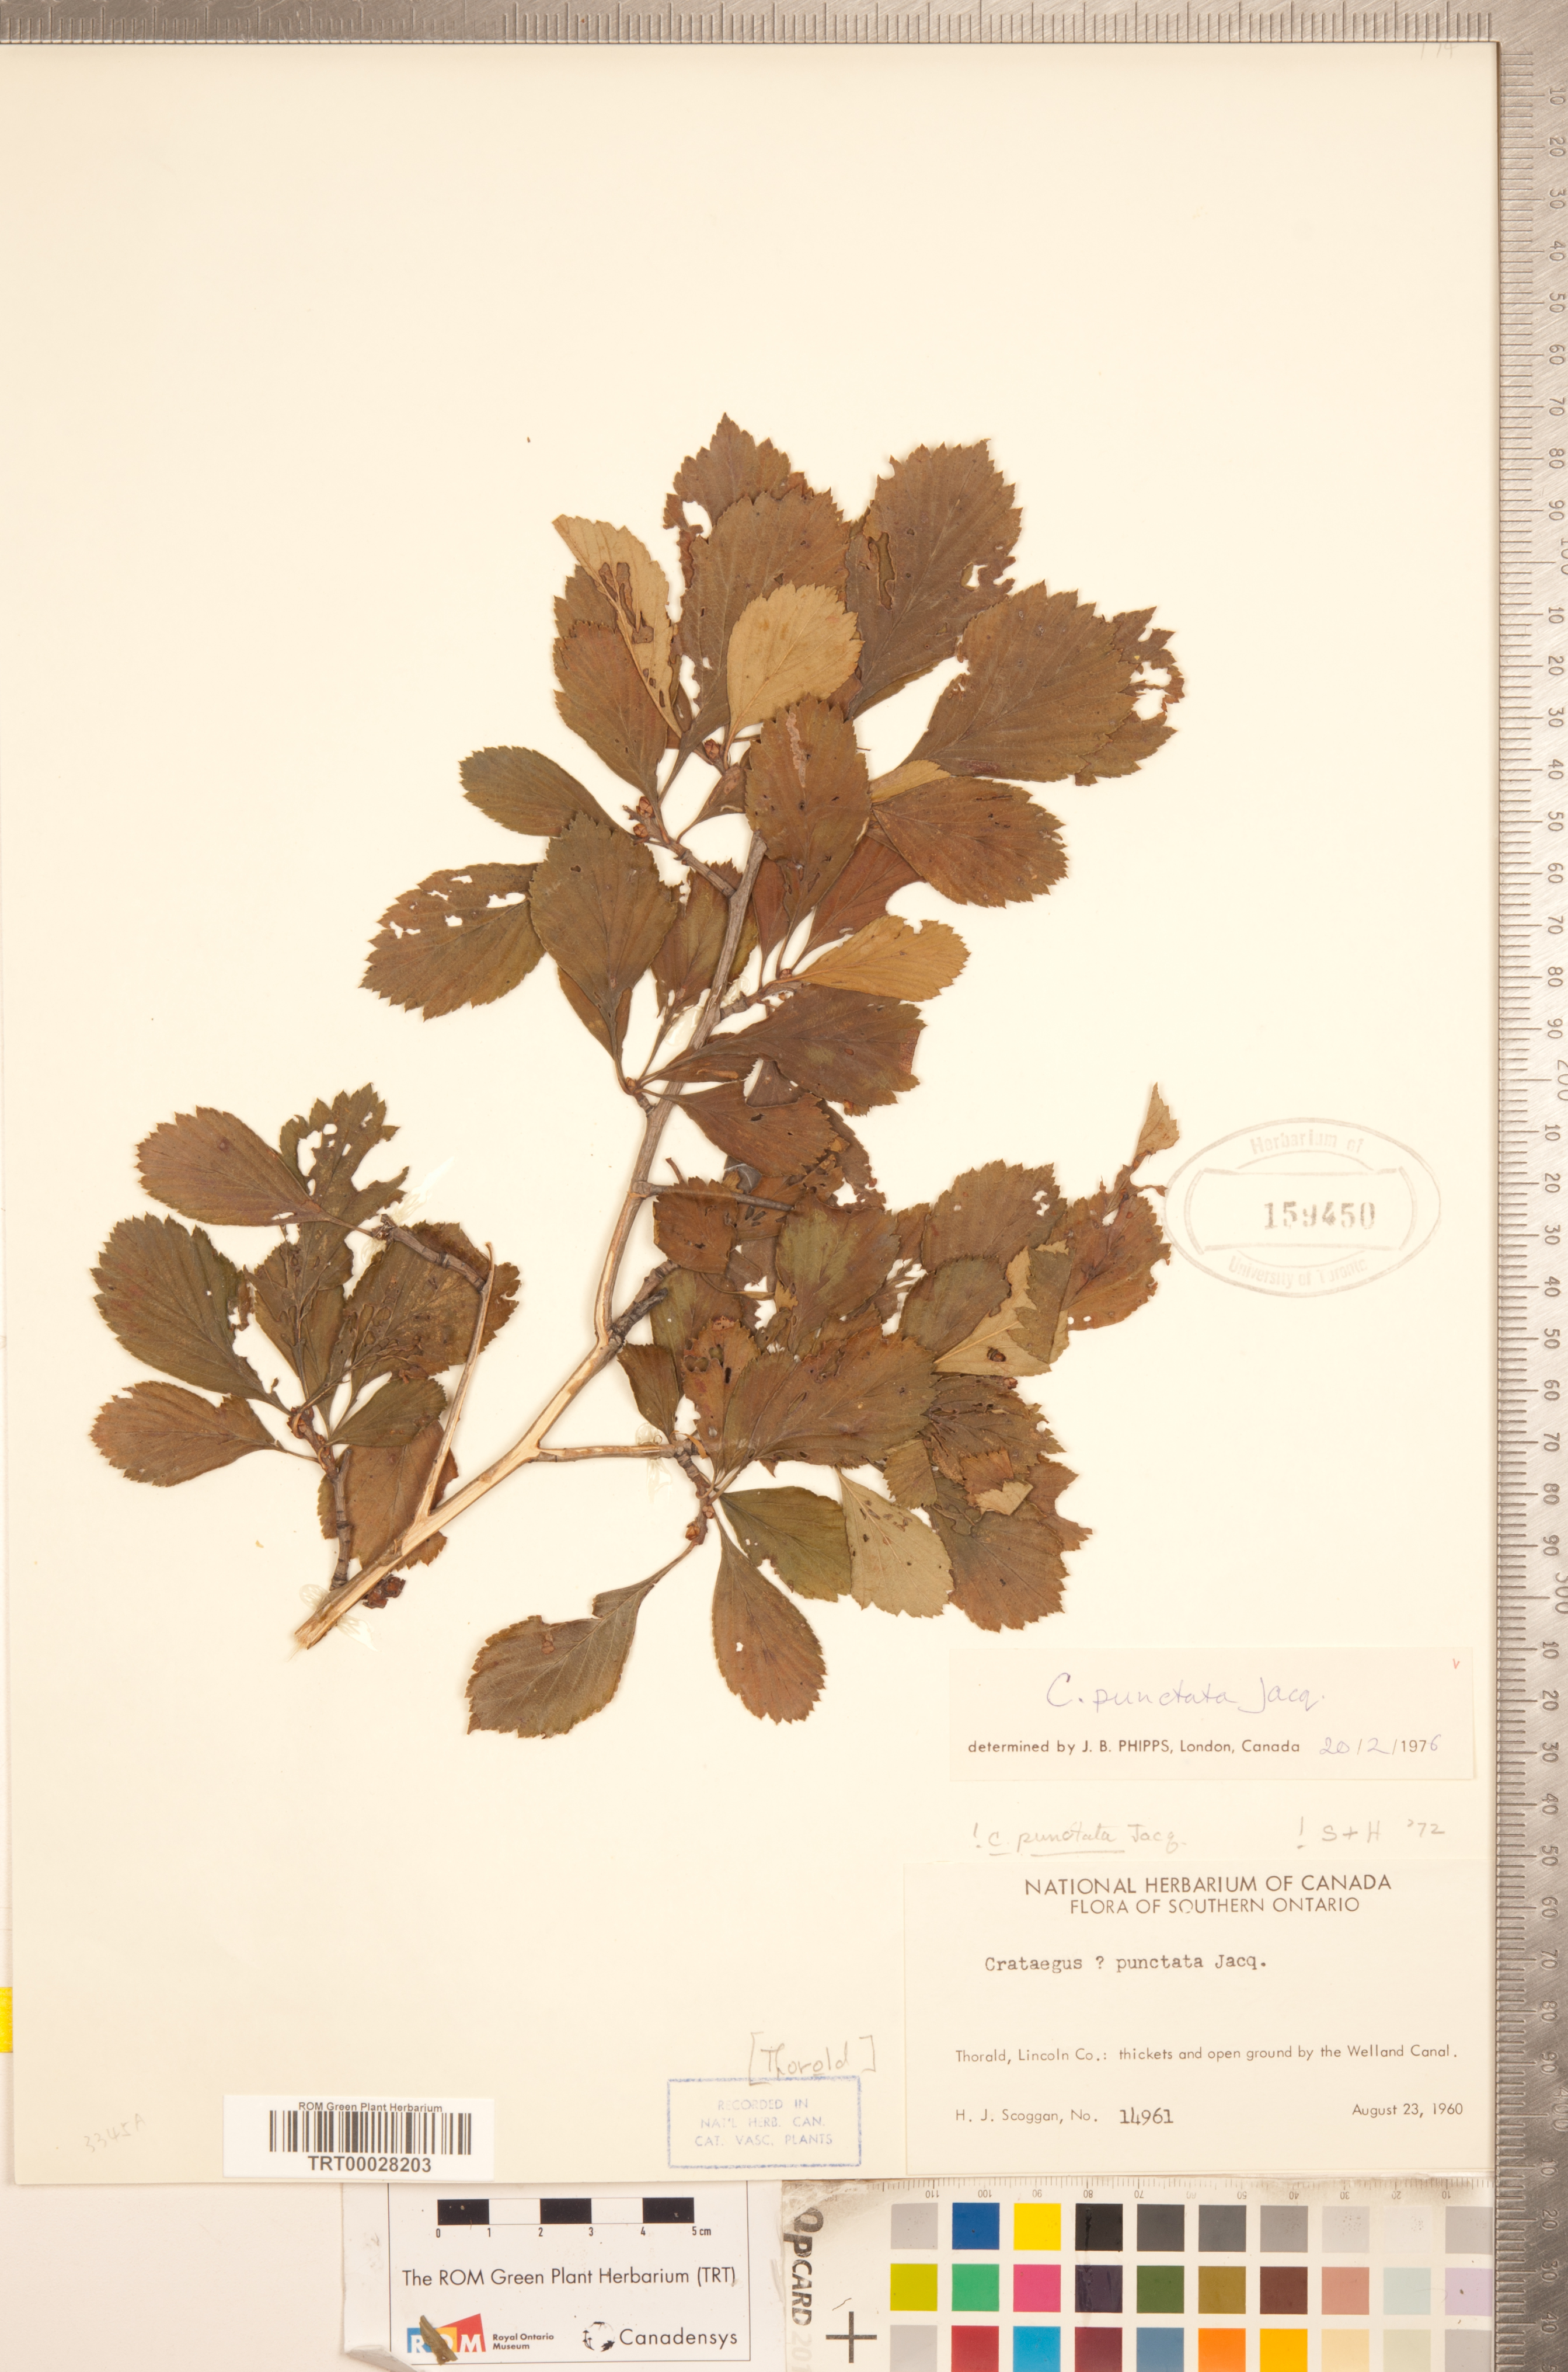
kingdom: Plantae
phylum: Tracheophyta
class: Magnoliopsida
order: Rosales
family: Rosaceae
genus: Crataegus
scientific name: Crataegus punctata
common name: Dotted hawthorn
